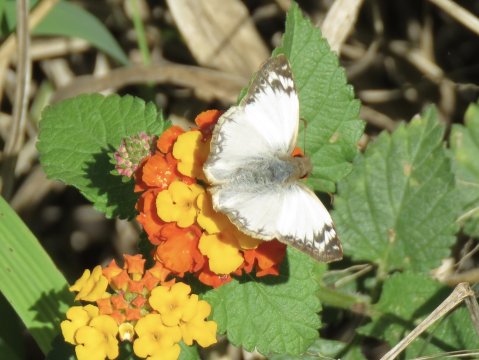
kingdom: Animalia
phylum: Arthropoda
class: Insecta
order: Lepidoptera
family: Hesperiidae
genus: Heliopetes
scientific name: Heliopetes laviana
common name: Laviana White-Skipper
